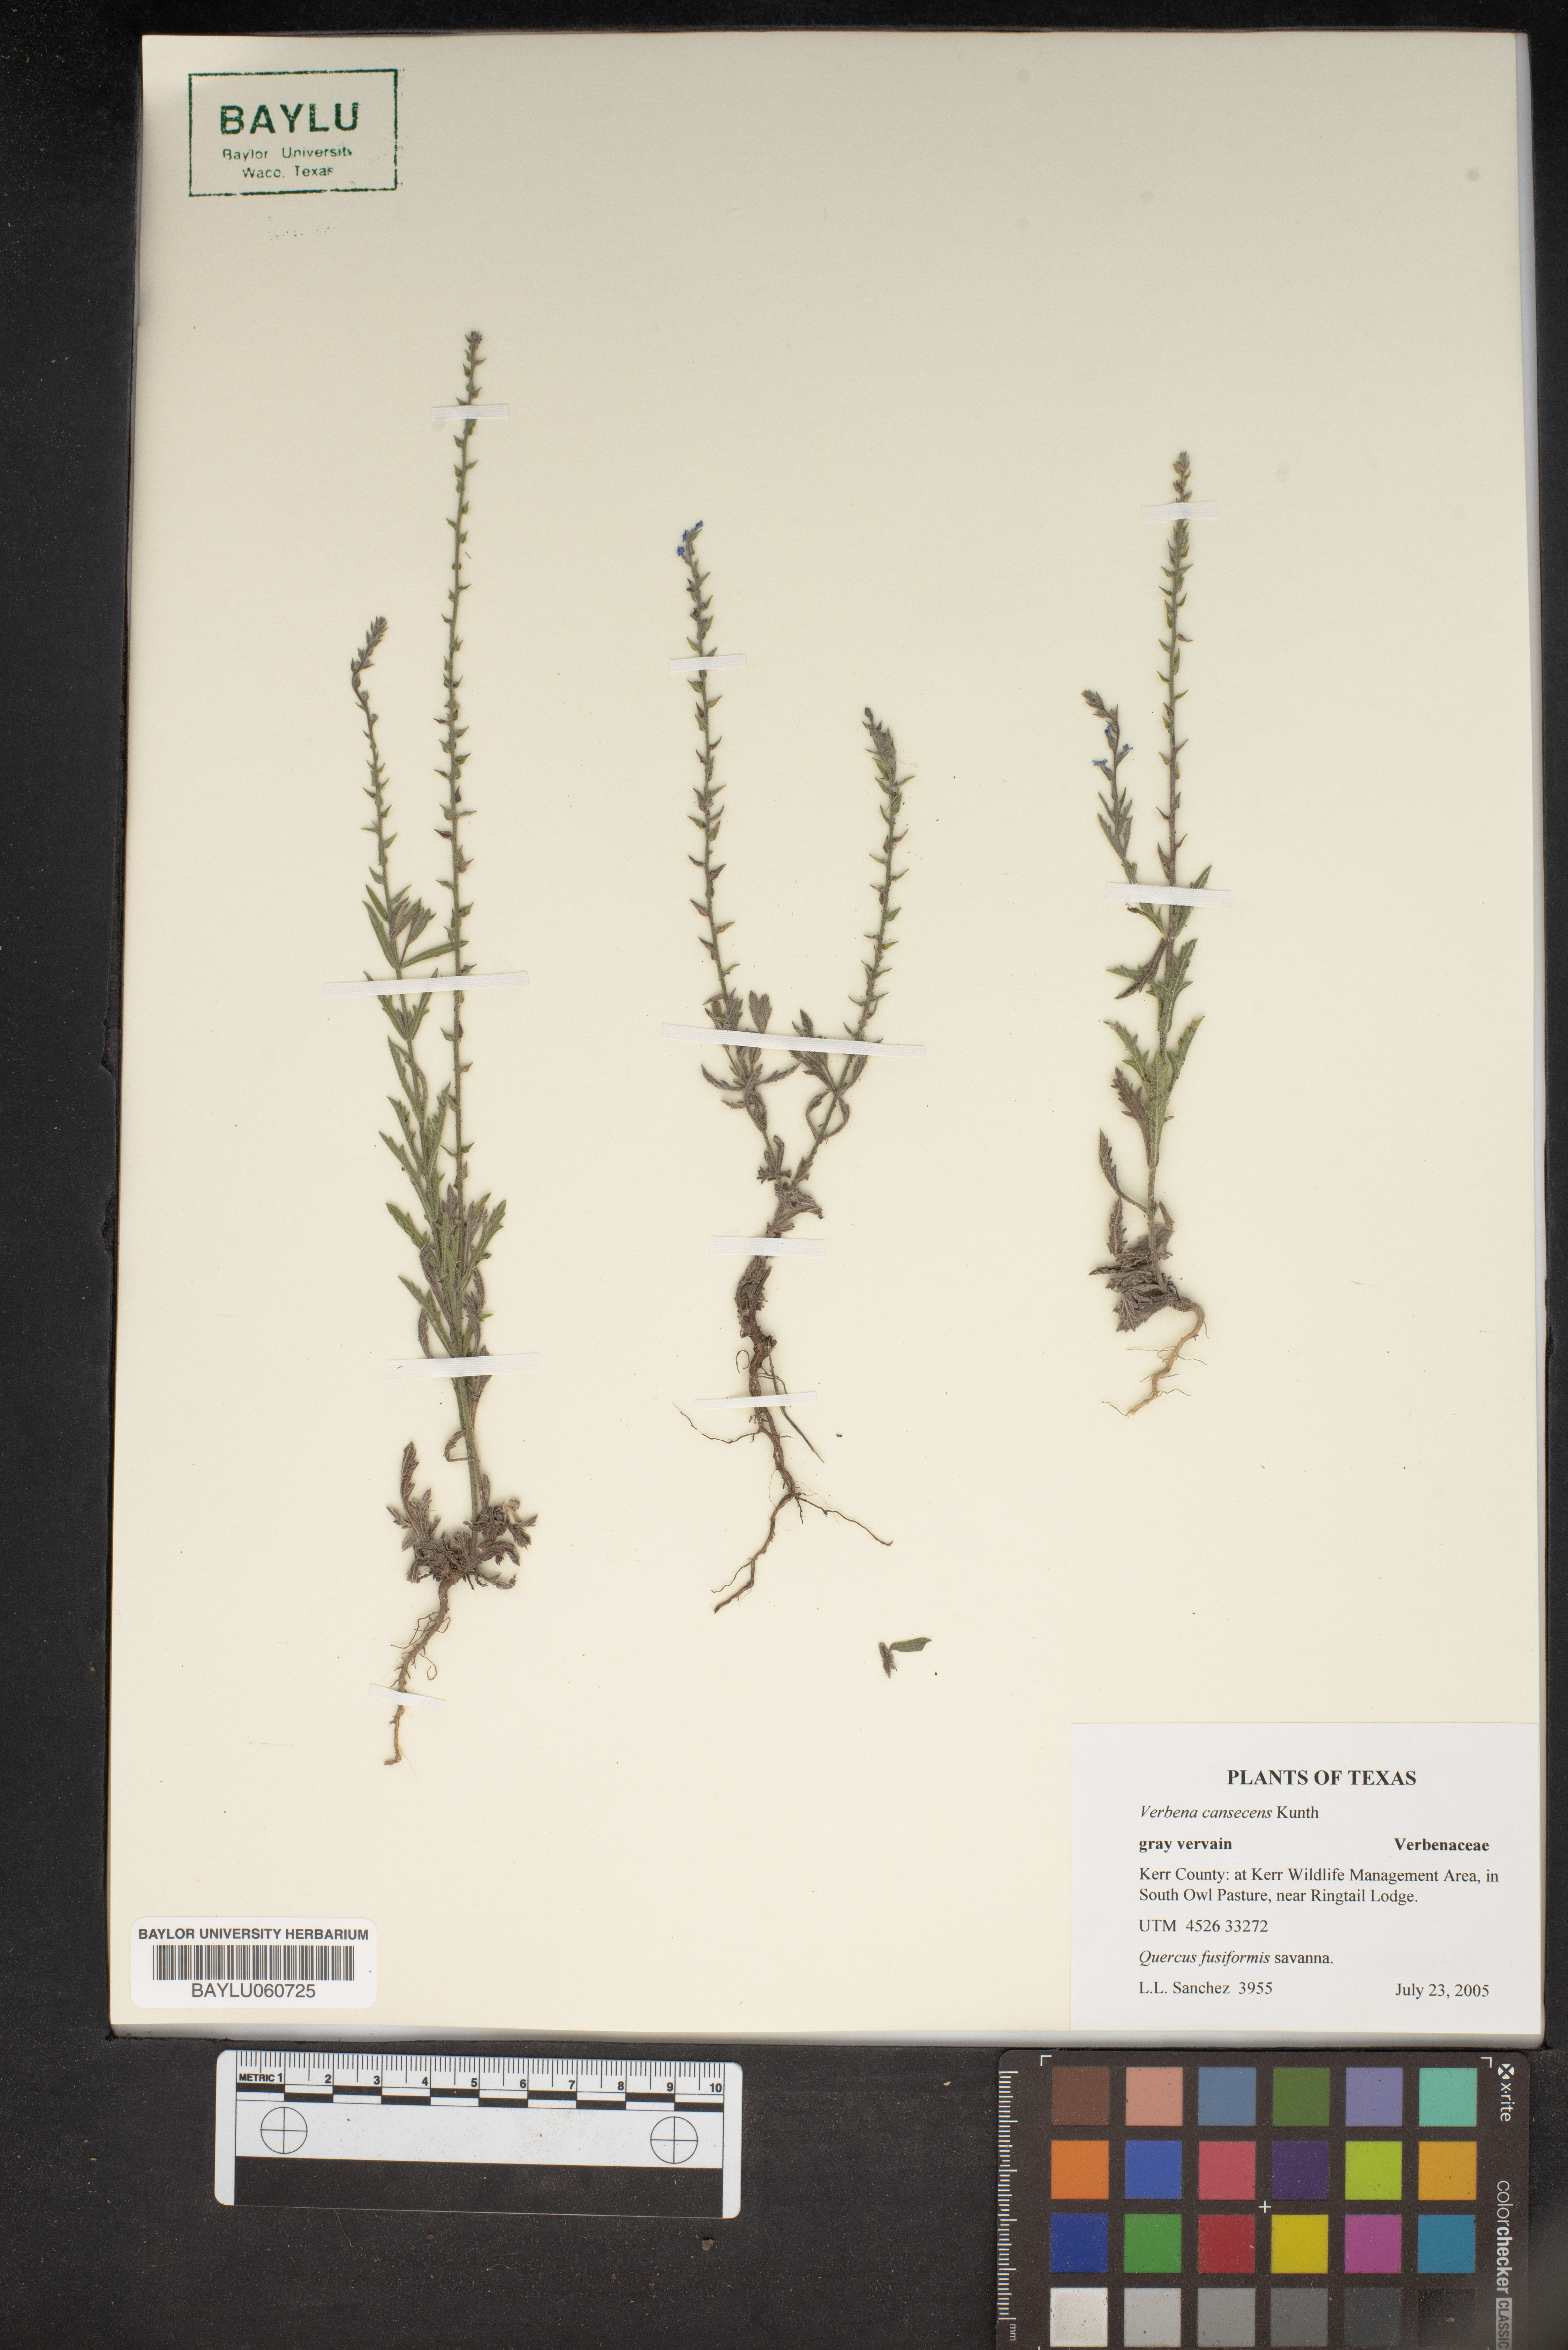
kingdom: Plantae
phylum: Tracheophyta
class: Magnoliopsida
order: Lamiales
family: Verbenaceae
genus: Verbena
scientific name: Verbena canescens
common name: Gray vervain
